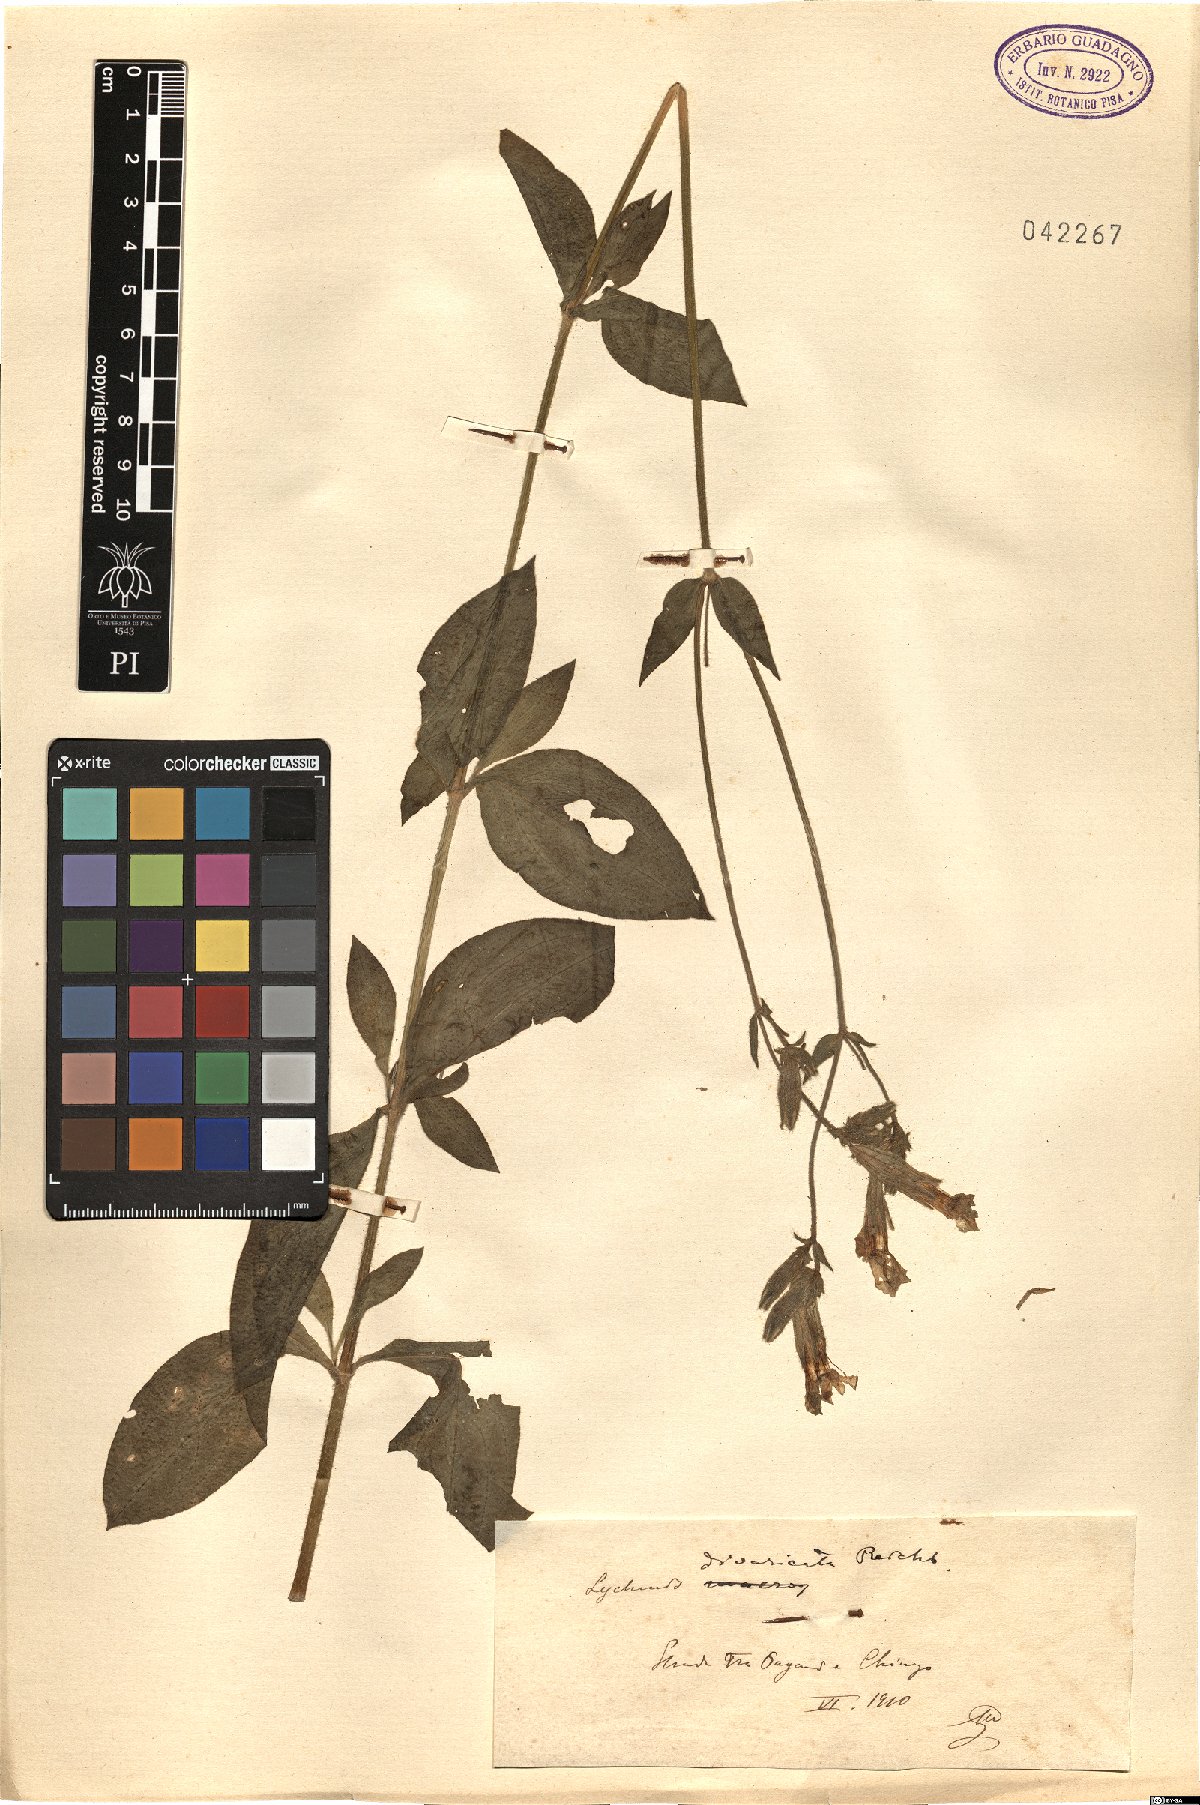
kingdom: Plantae
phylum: Tracheophyta
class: Magnoliopsida
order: Caryophyllales
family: Caryophyllaceae
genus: Silene
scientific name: Silene latifolia
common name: White campion
